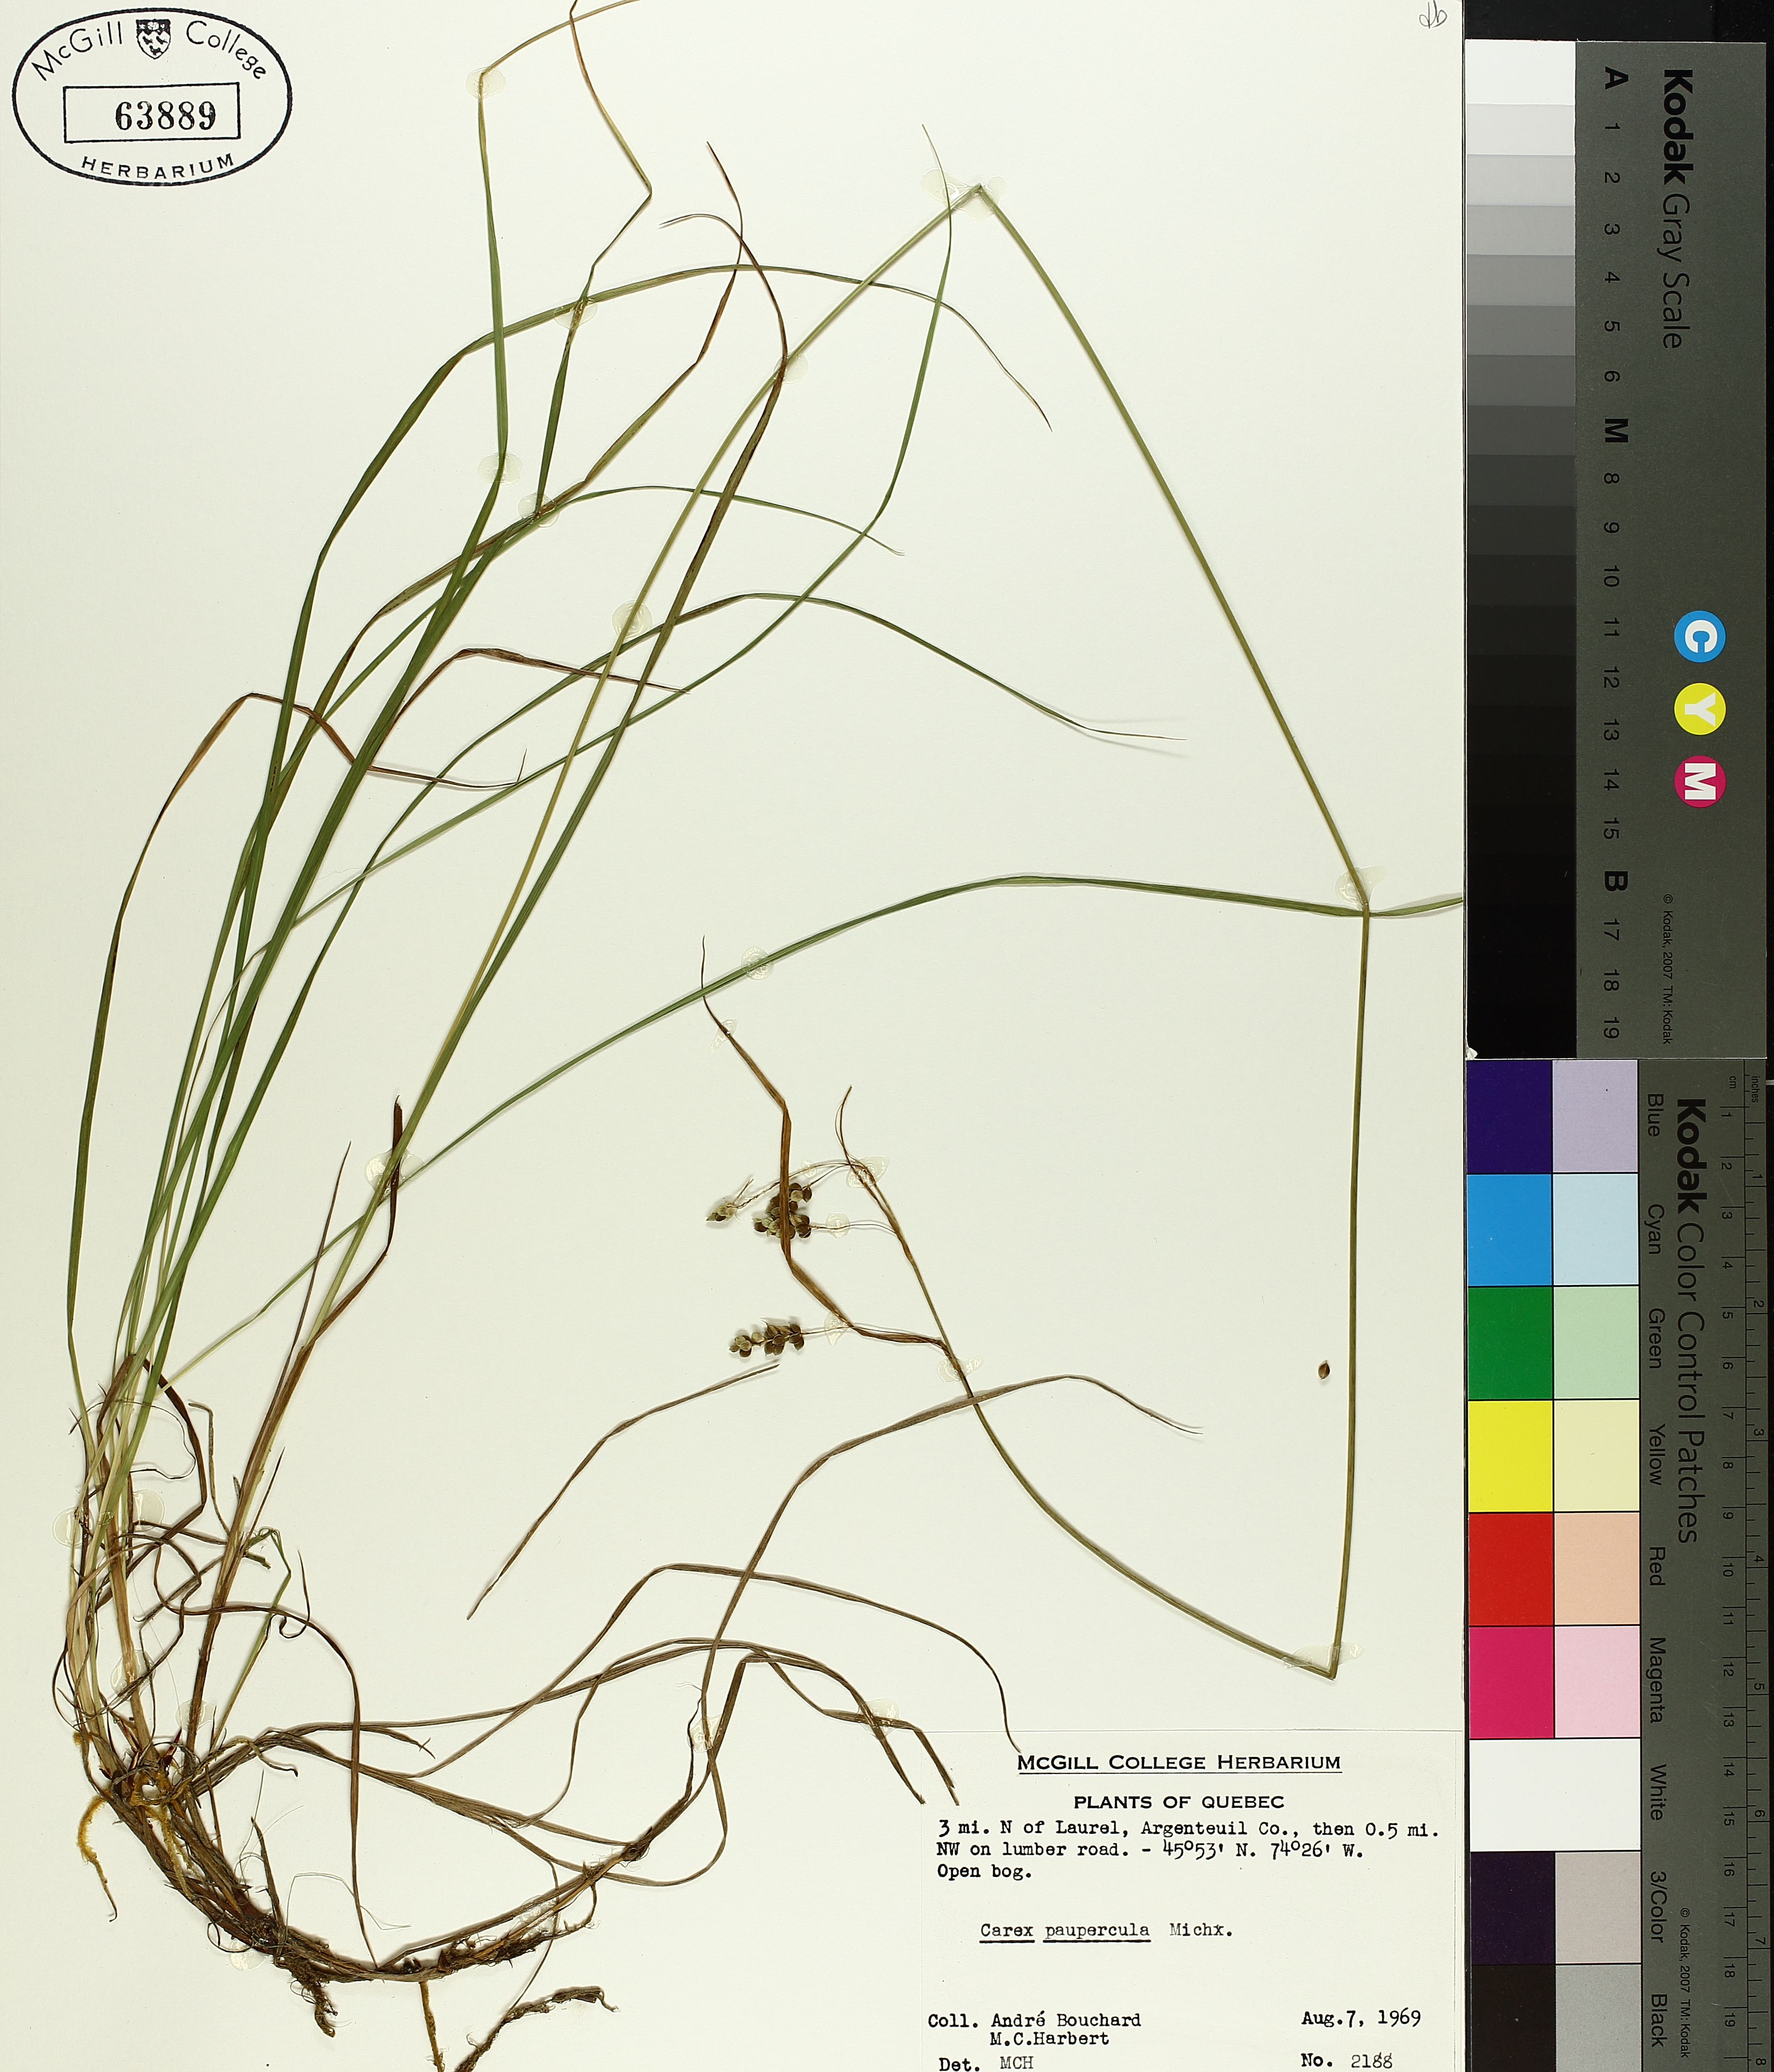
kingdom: Plantae
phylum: Tracheophyta
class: Liliopsida
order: Poales
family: Cyperaceae
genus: Carex
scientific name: Carex magellanica
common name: Bog sedge
